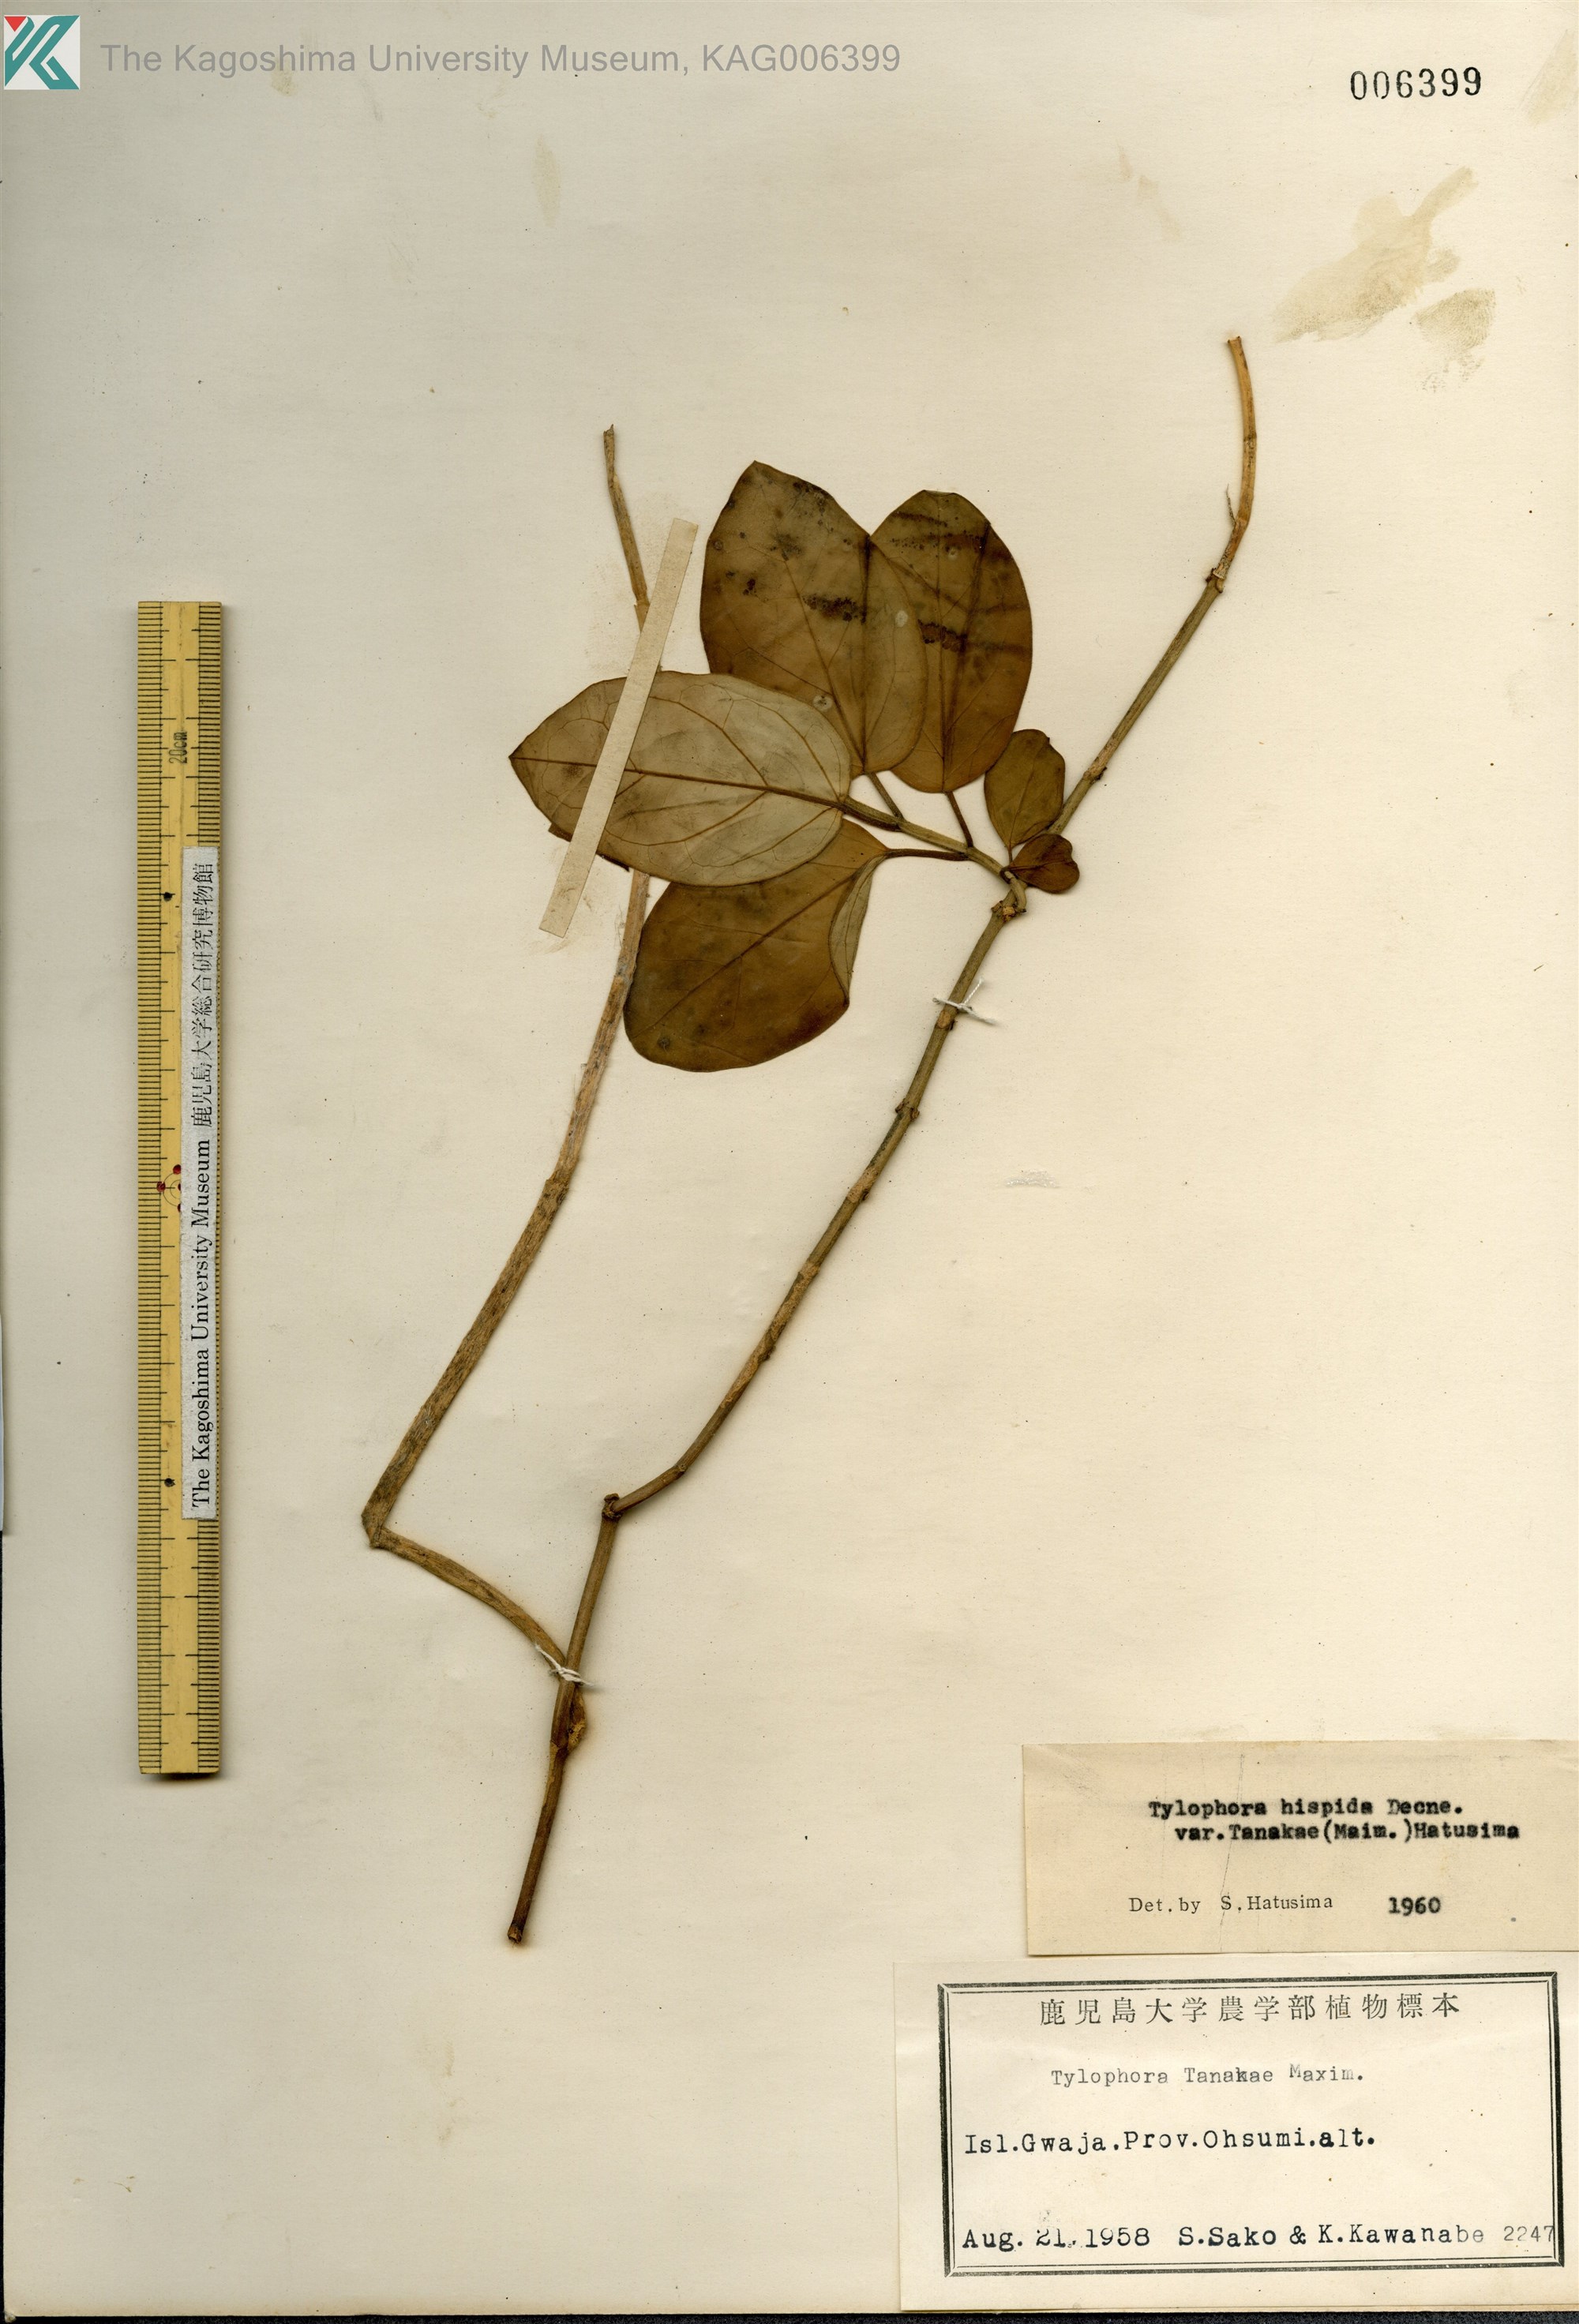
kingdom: Plantae
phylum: Tracheophyta
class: Magnoliopsida
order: Gentianales
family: Apocynaceae
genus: Vincetoxicum
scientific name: Vincetoxicum Tylophora tanakae
